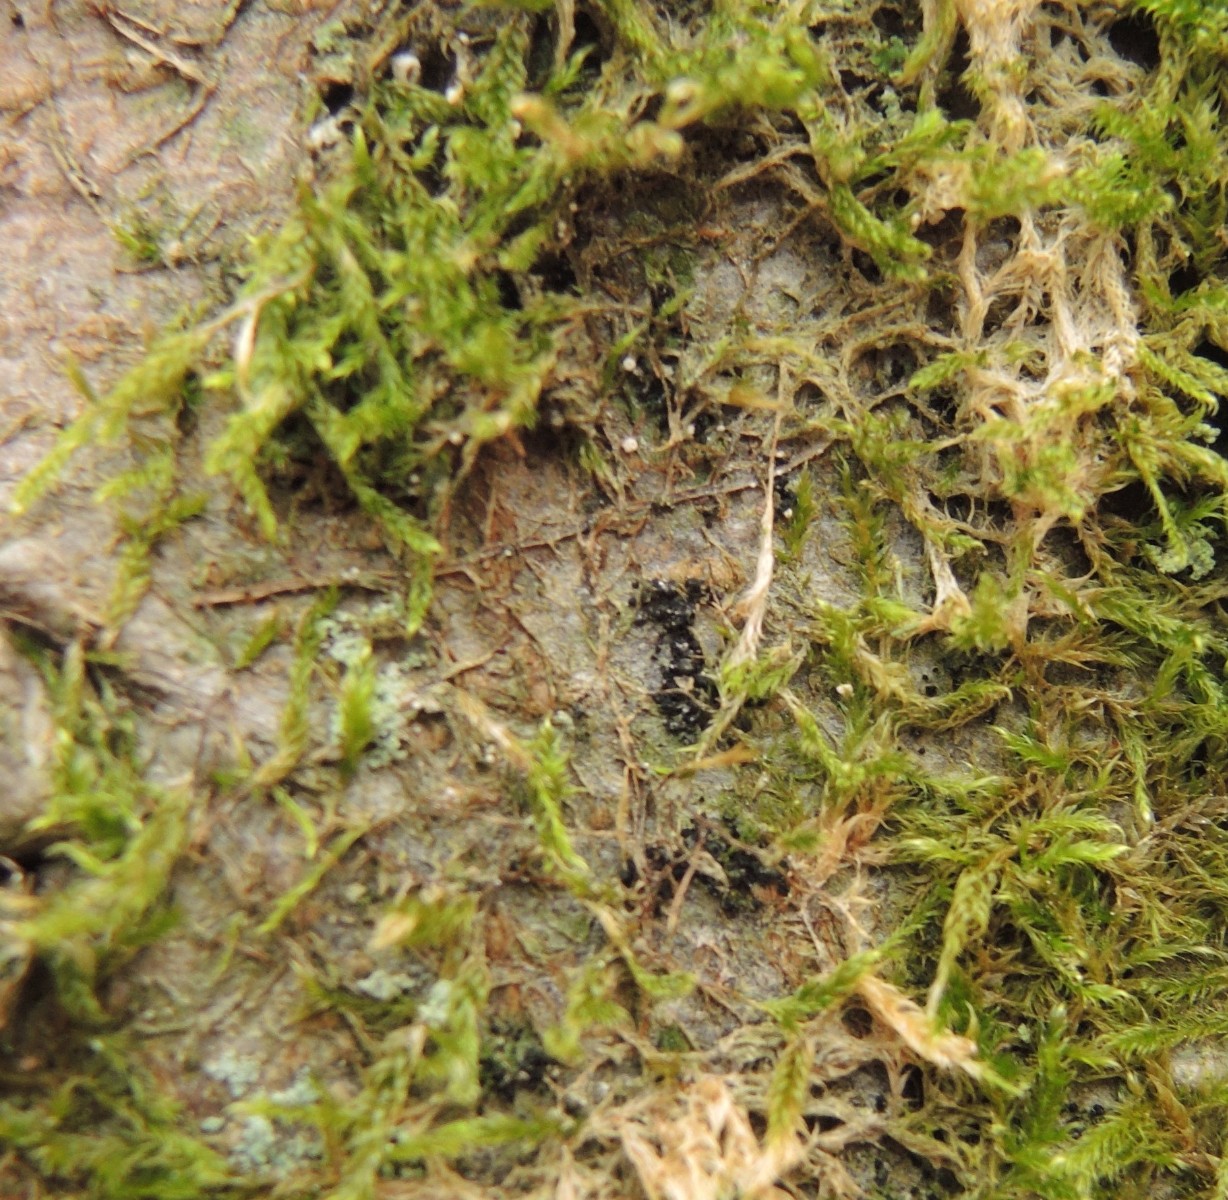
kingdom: Fungi
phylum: Basidiomycota
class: Agaricomycetes
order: Agaricales
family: Chromocyphellaceae
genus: Chromocyphella
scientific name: Chromocyphella muscicola
